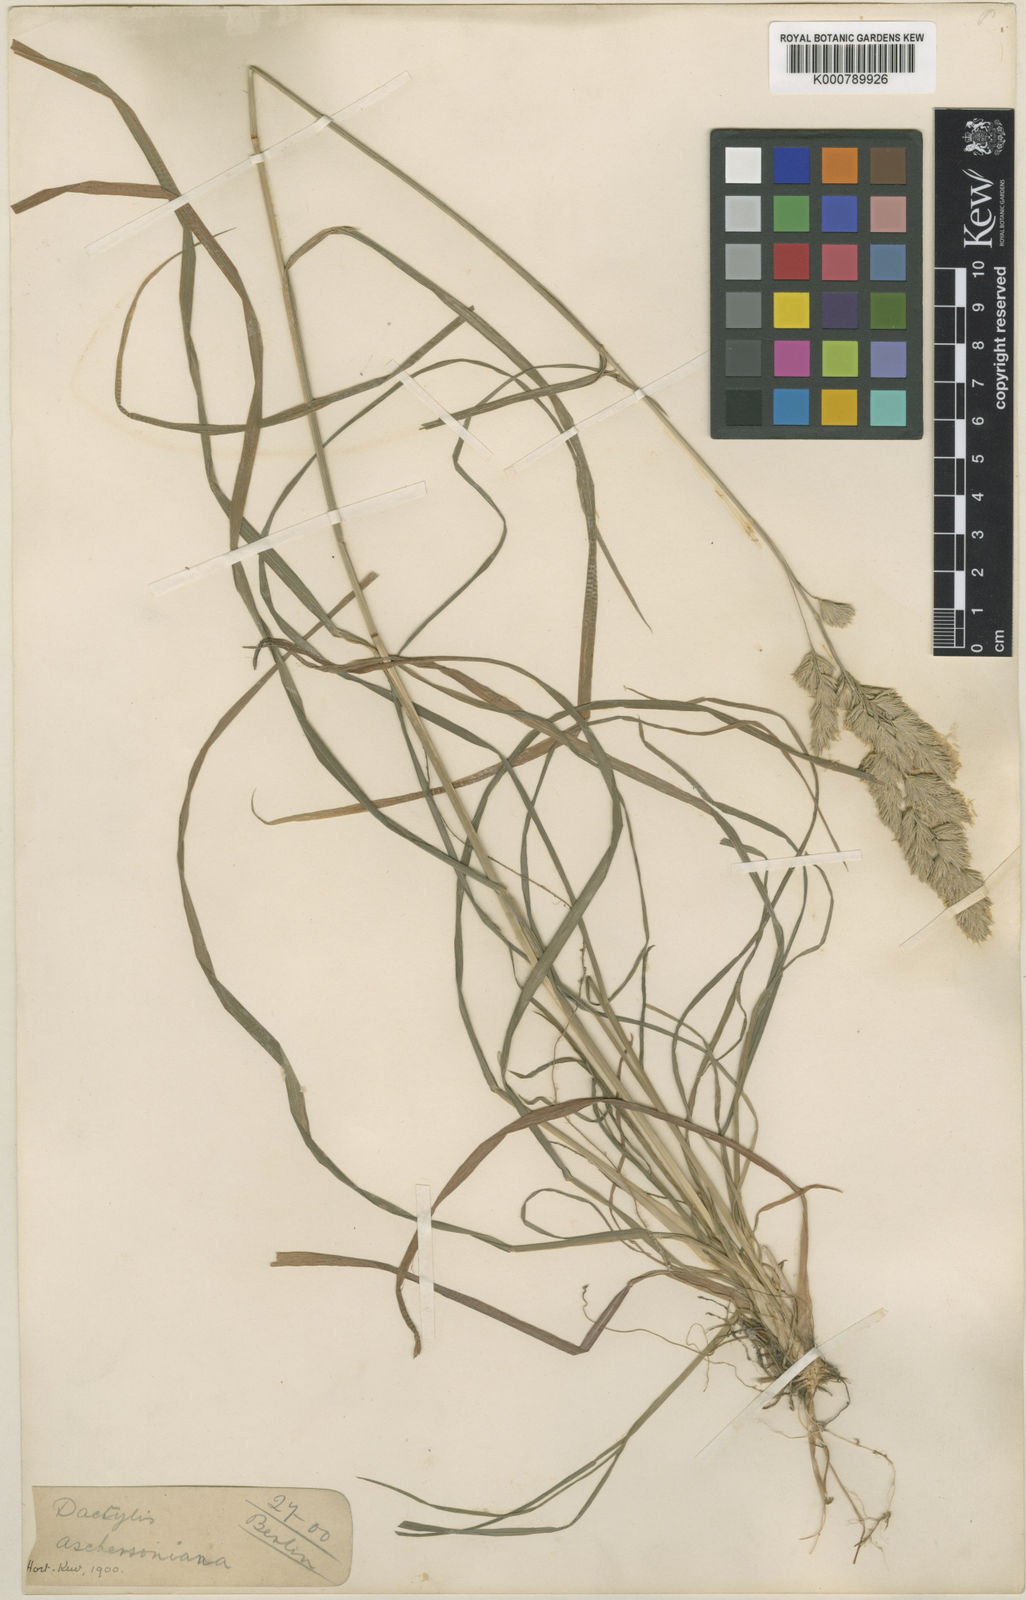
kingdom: Plantae
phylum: Tracheophyta
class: Liliopsida
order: Poales
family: Poaceae
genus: Dactylis
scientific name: Dactylis glomerata
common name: Orchardgrass
